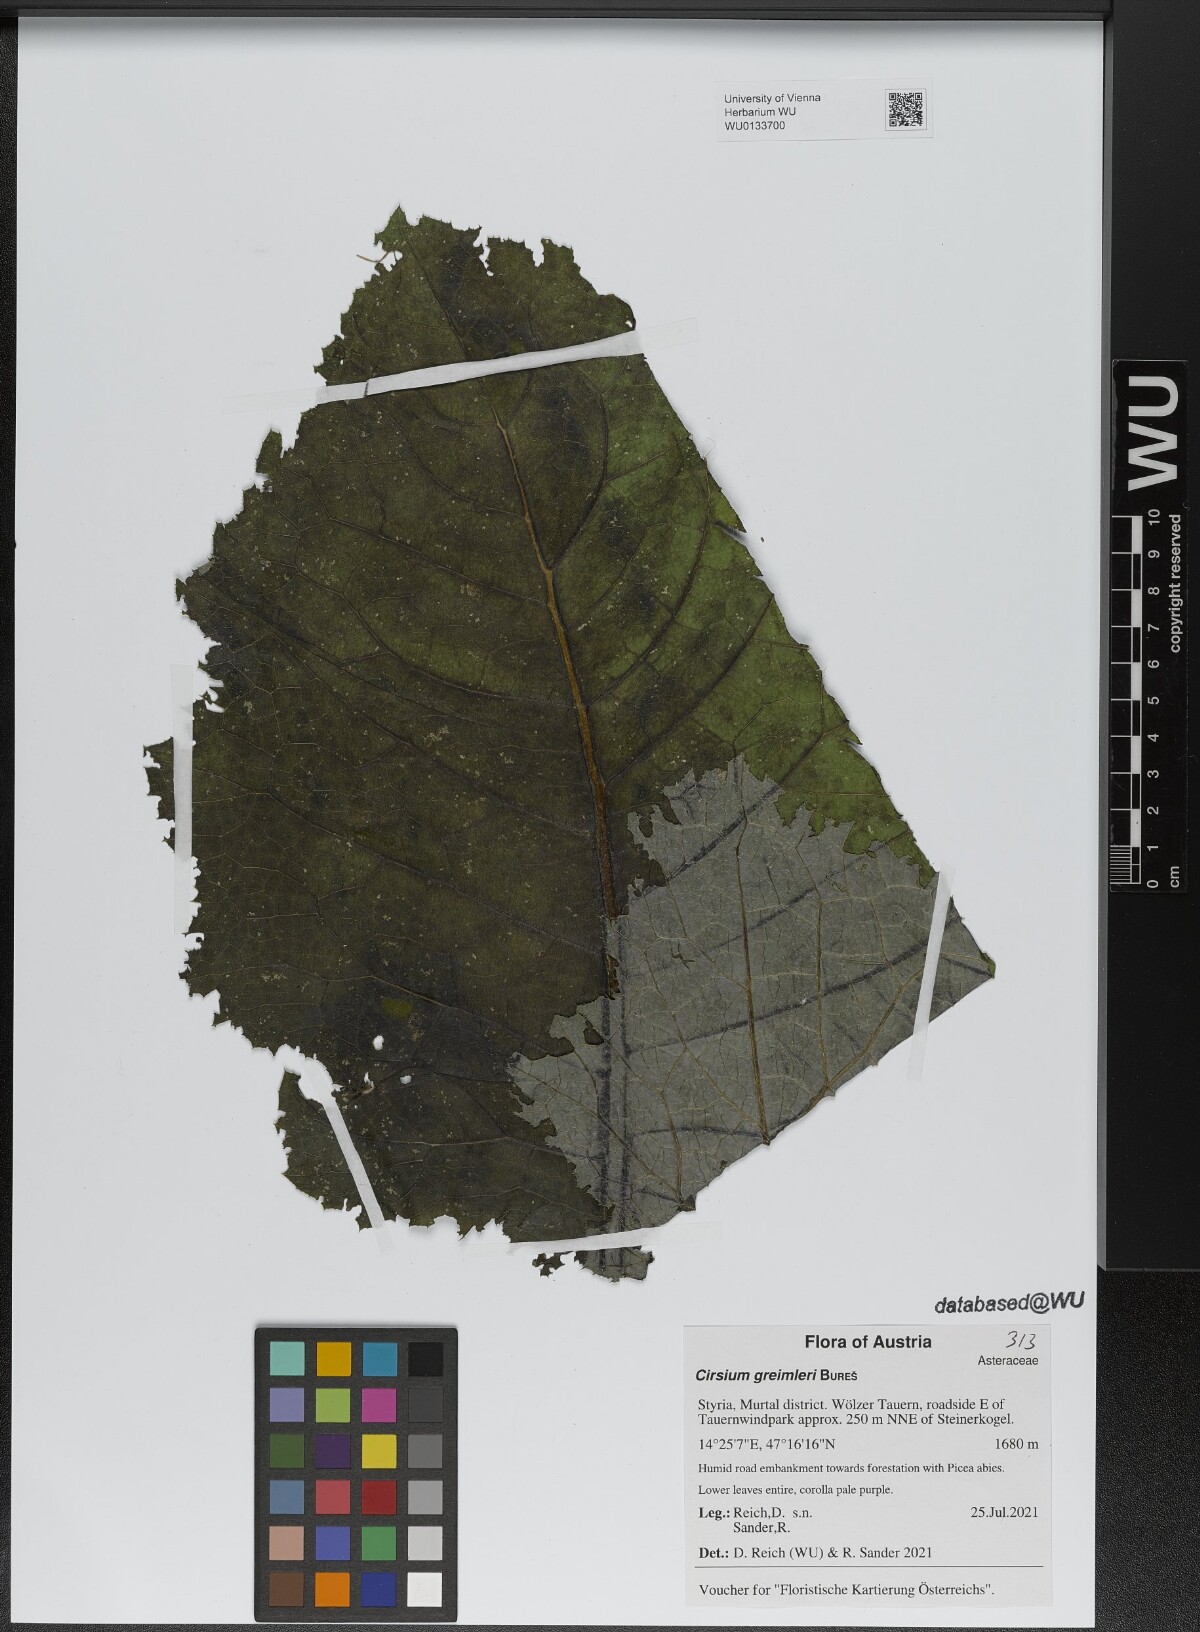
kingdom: Plantae
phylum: Tracheophyta
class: Magnoliopsida
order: Asterales
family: Asteraceae
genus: Cirsium
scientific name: Cirsium greimleri
